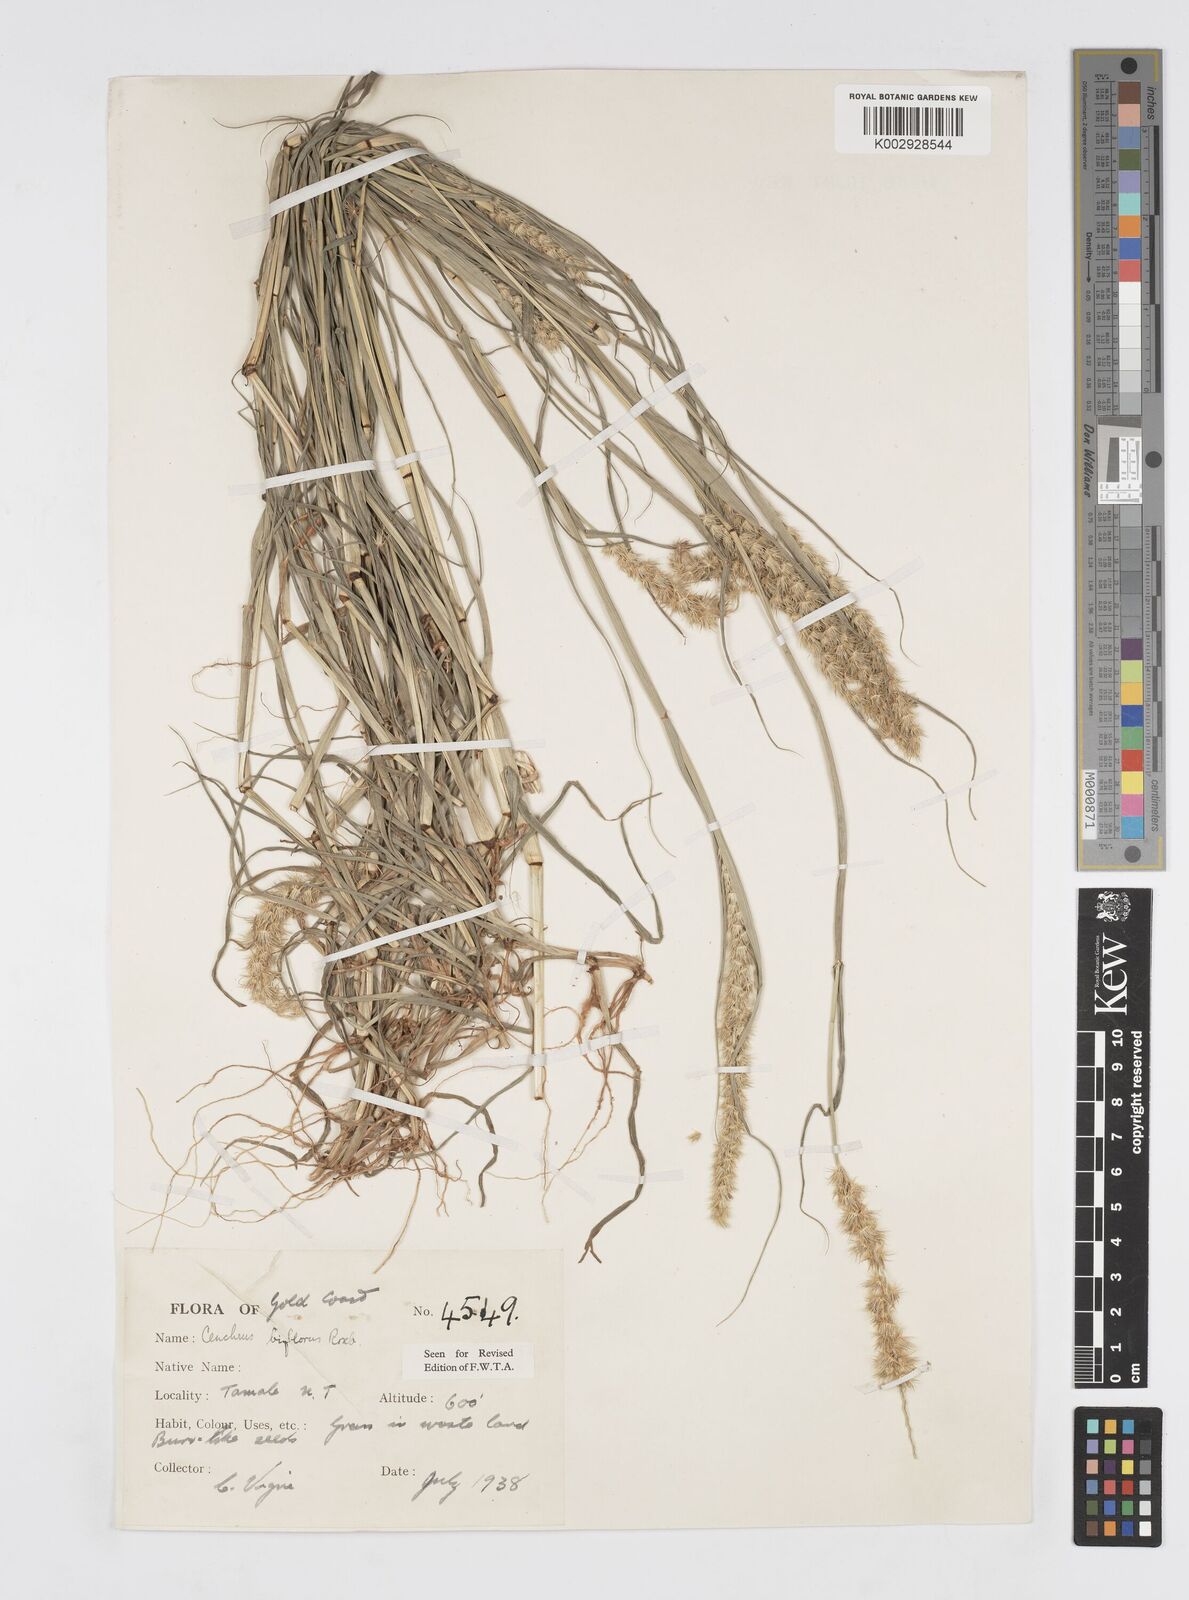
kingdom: Plantae
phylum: Tracheophyta
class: Liliopsida
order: Poales
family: Poaceae
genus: Cenchrus
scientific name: Cenchrus biflorus
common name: Indian sandbur
